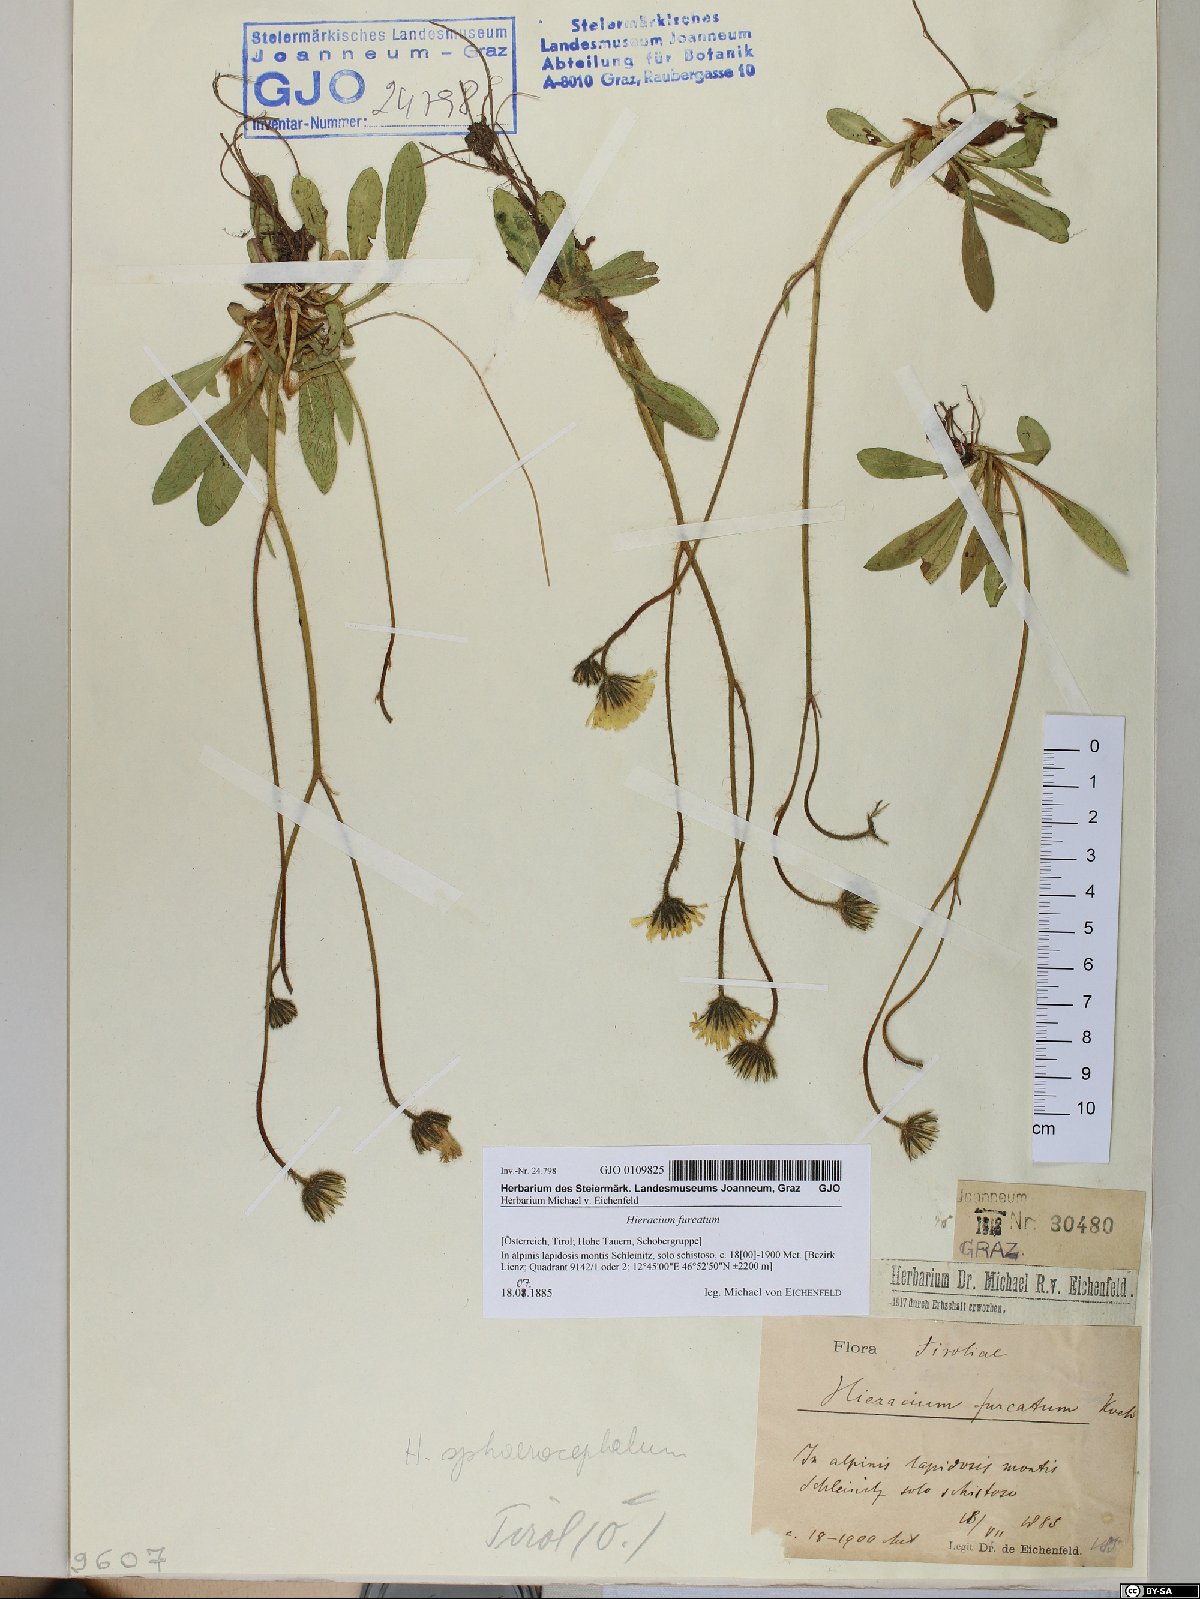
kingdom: Plantae
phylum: Tracheophyta
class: Magnoliopsida
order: Asterales
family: Asteraceae
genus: Pilosella
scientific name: Pilosella sphaerocephala
